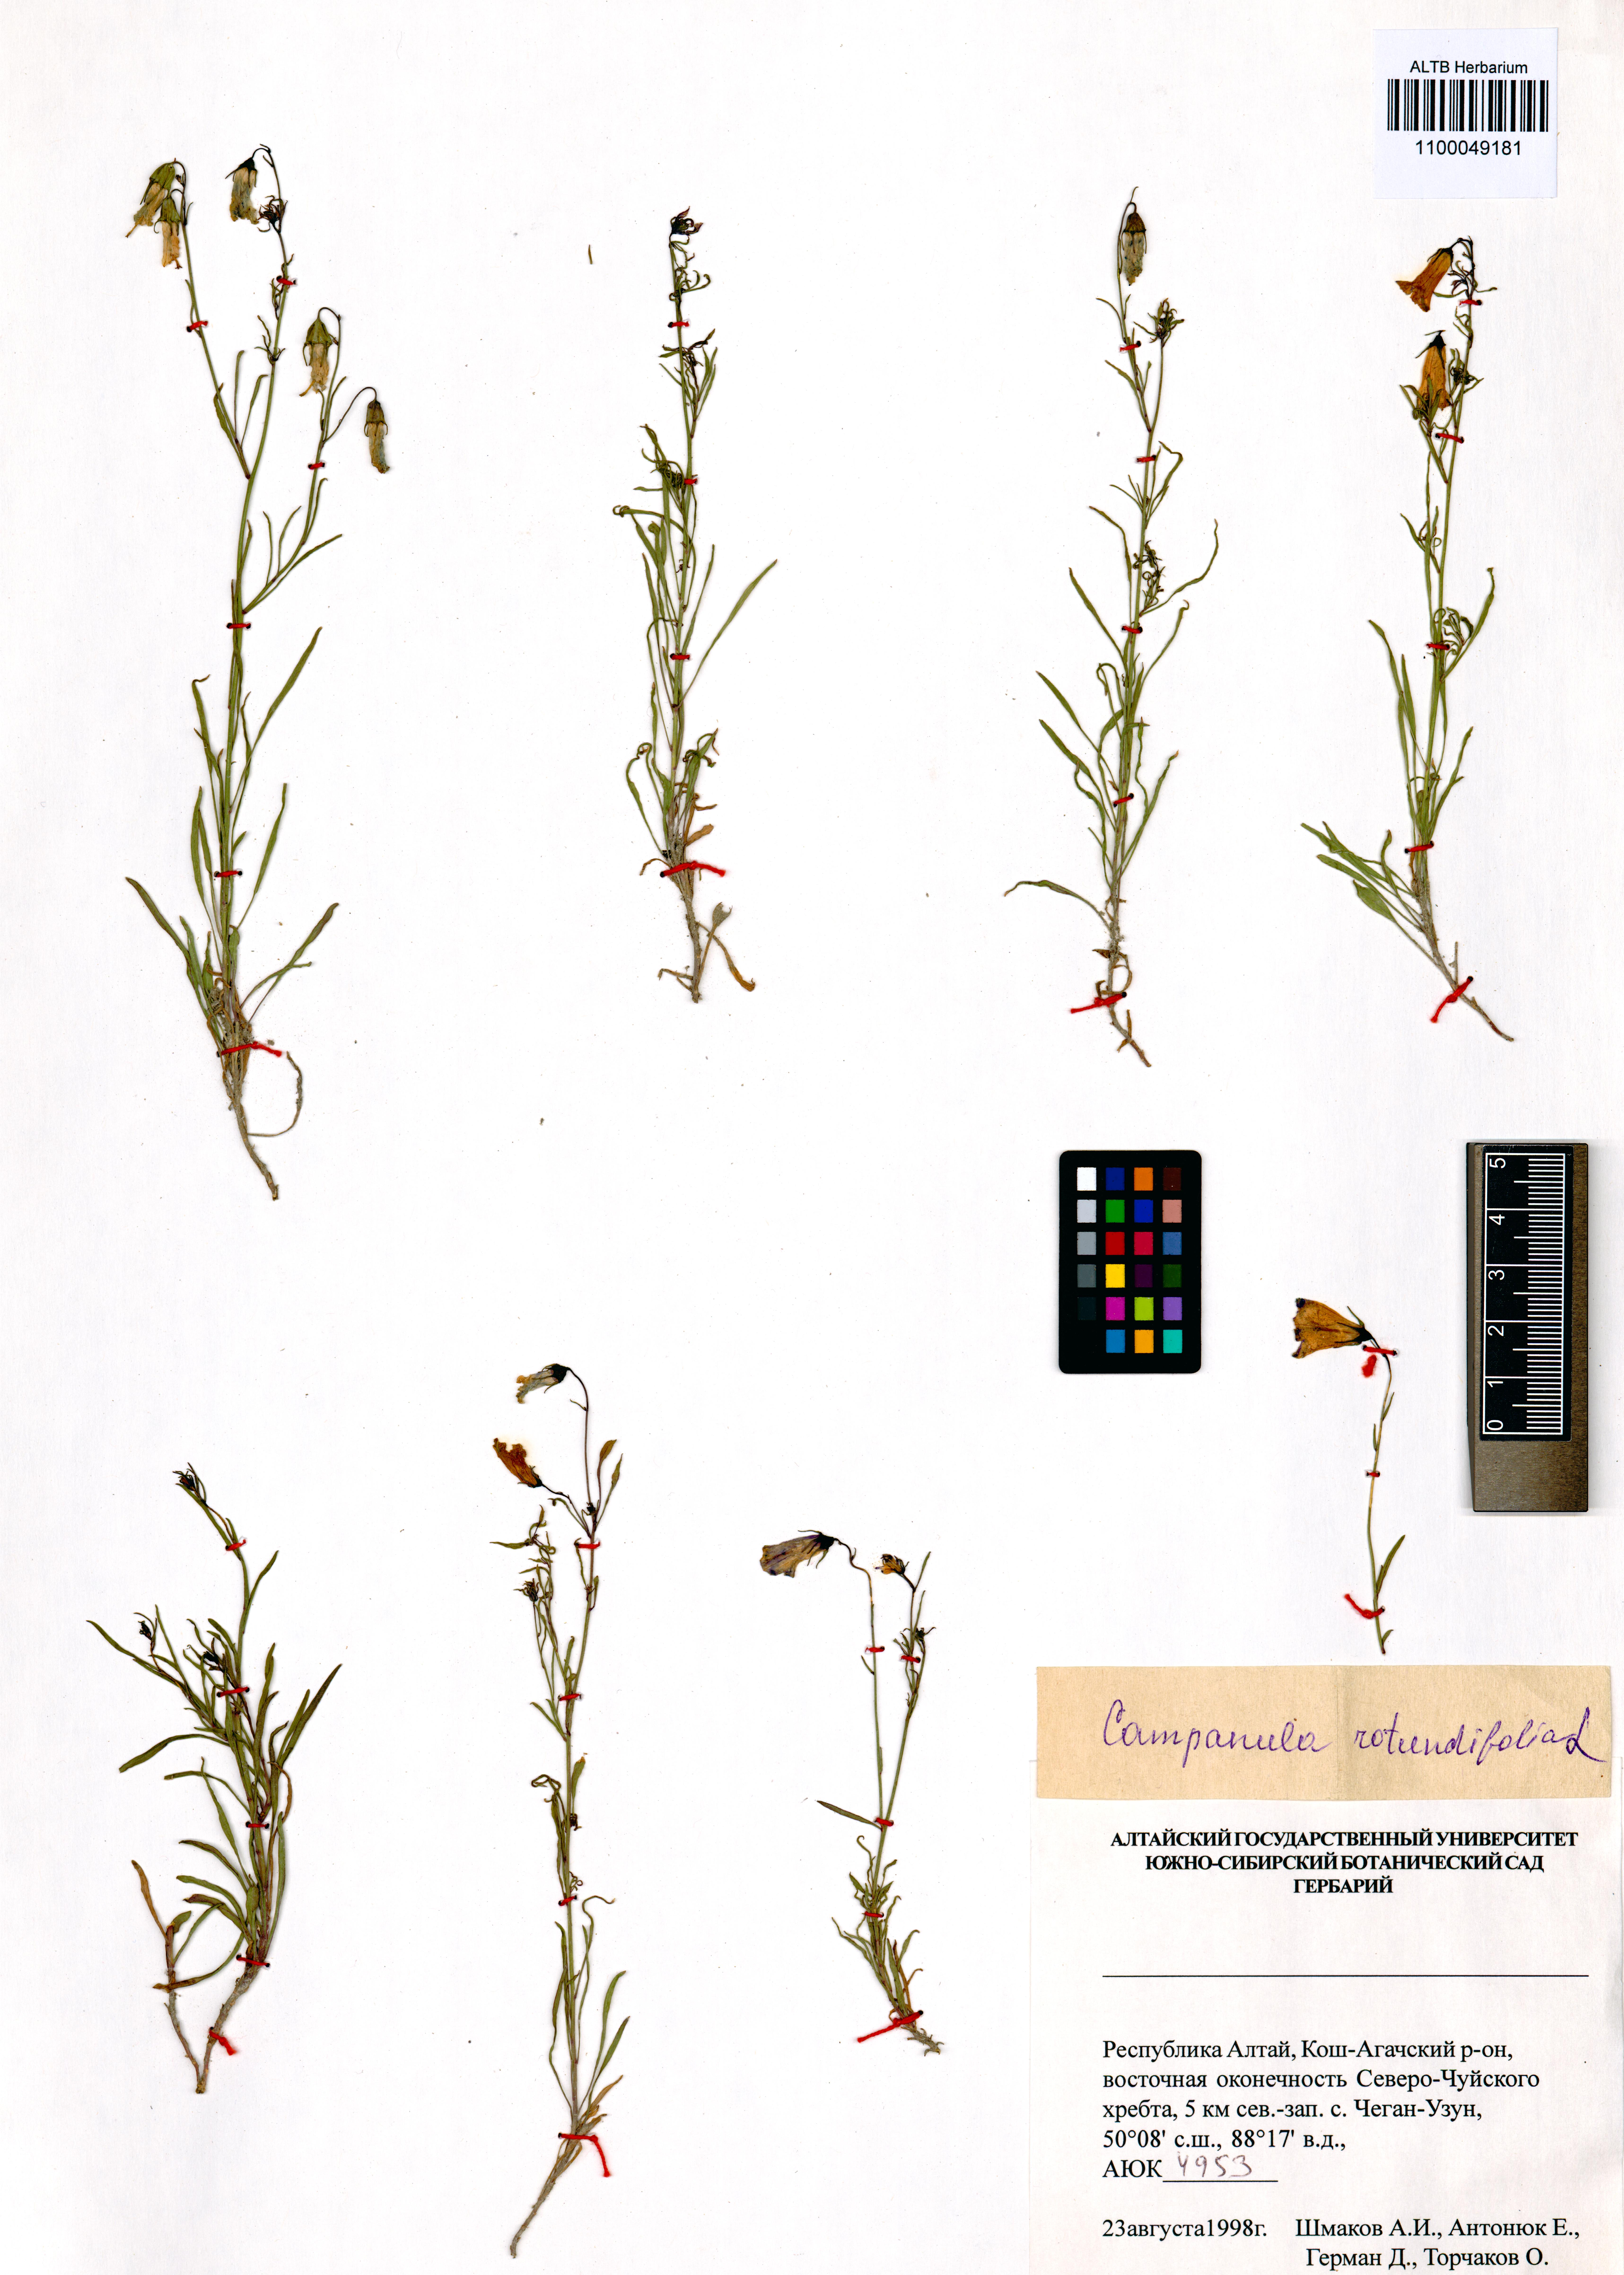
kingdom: Plantae
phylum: Tracheophyta
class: Magnoliopsida
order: Asterales
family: Campanulaceae
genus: Campanula
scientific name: Campanula rotundifolia
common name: Harebell
